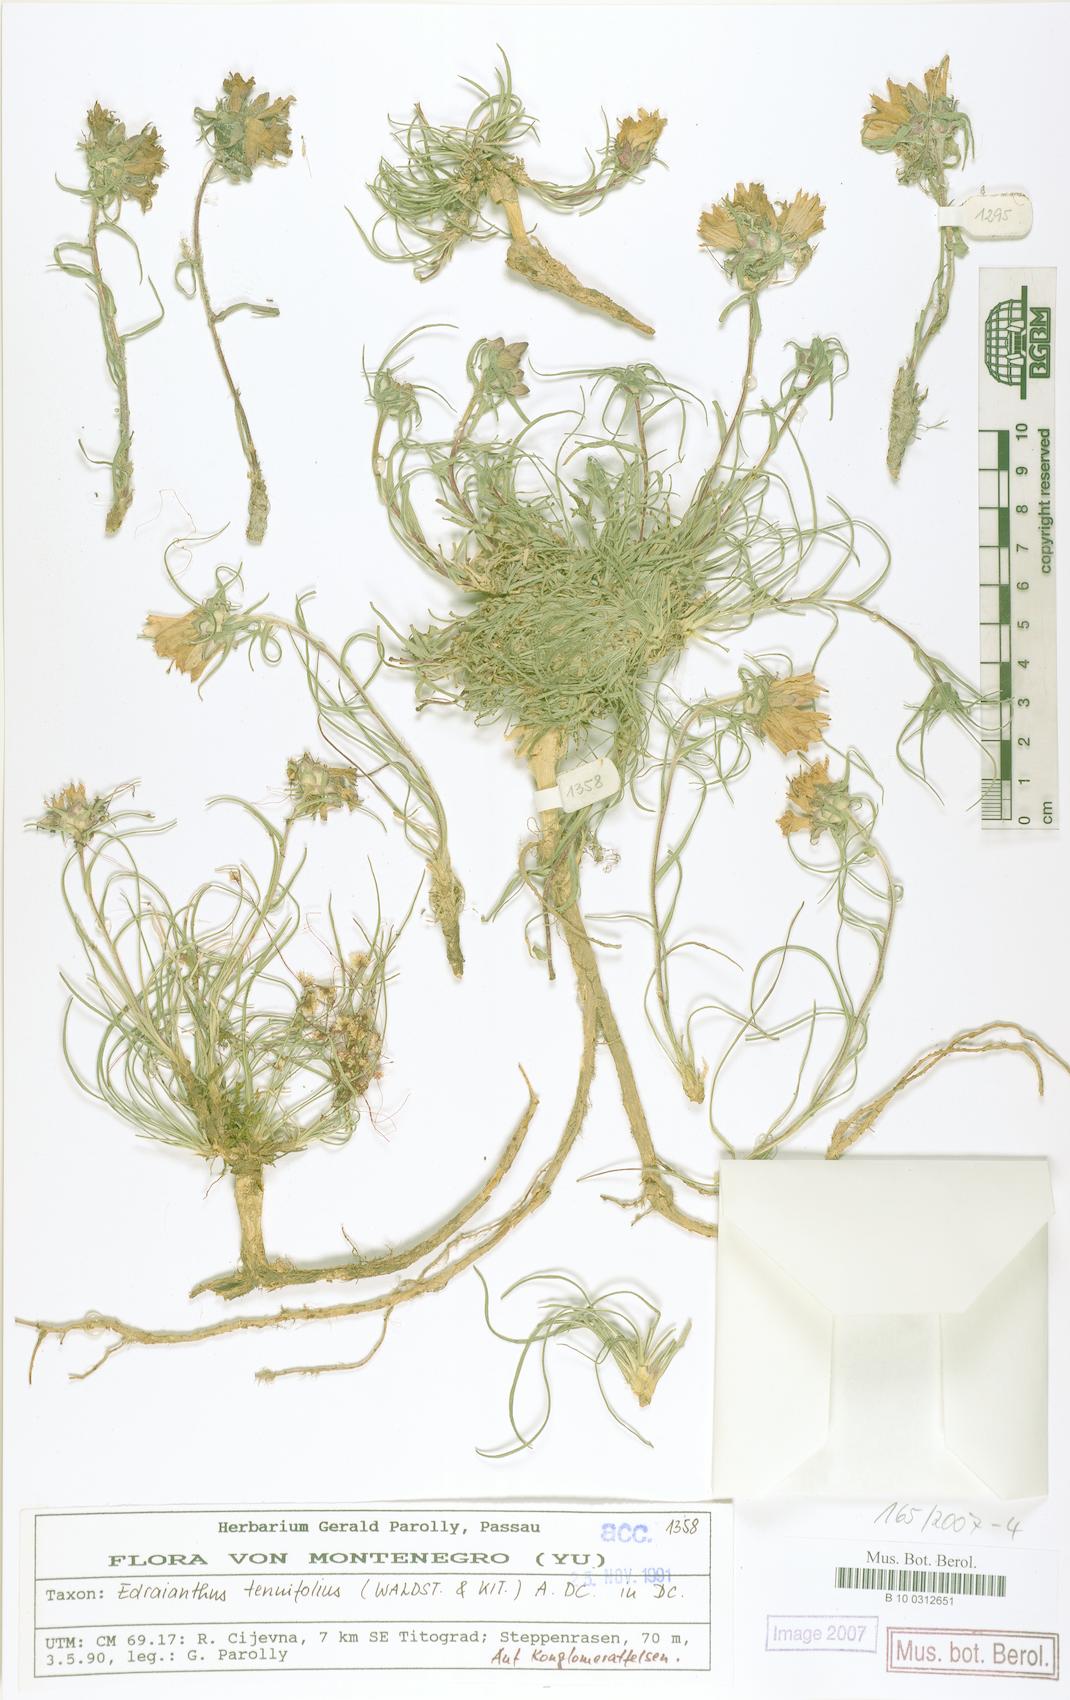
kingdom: Plantae
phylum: Tracheophyta
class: Magnoliopsida
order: Asterales
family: Campanulaceae
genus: Edraianthus
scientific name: Edraianthus tenuifolius
